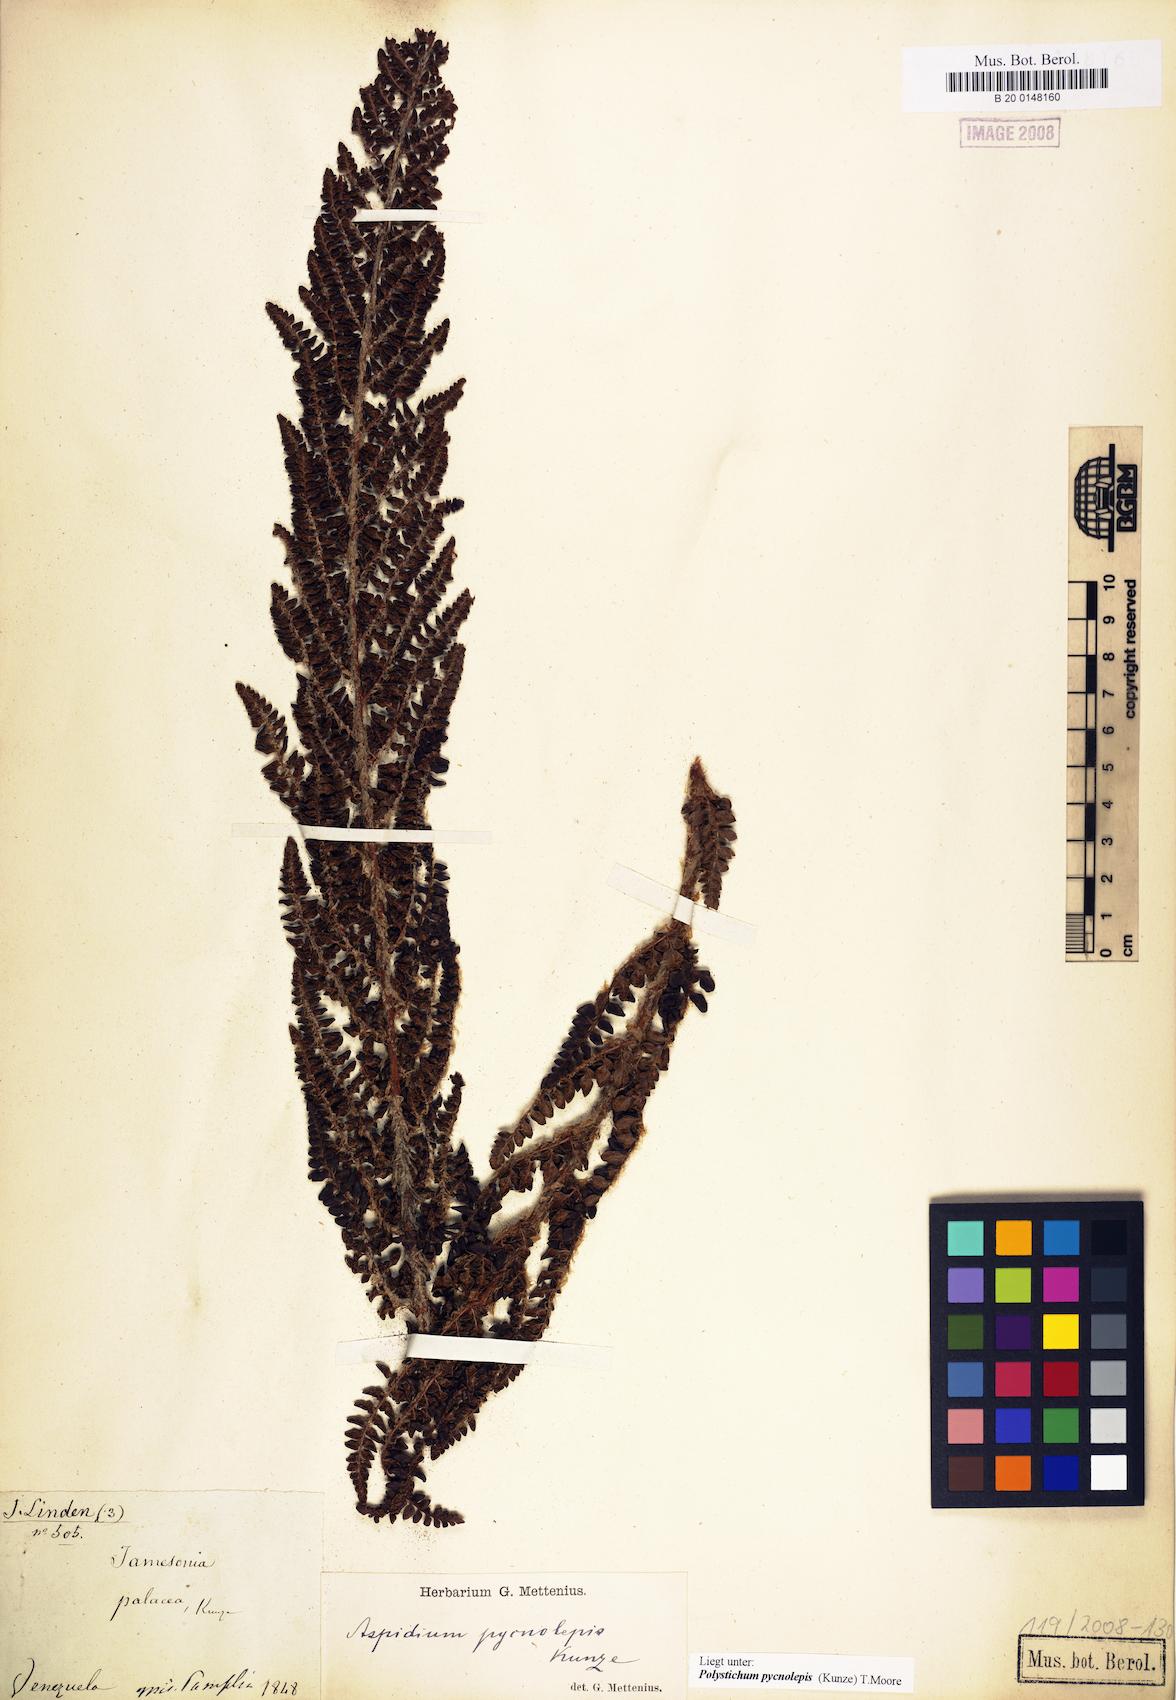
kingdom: Plantae
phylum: Tracheophyta
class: Polypodiopsida
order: Polypodiales
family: Dryopteridaceae
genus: Polystichum
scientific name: Polystichum pycnolepis
